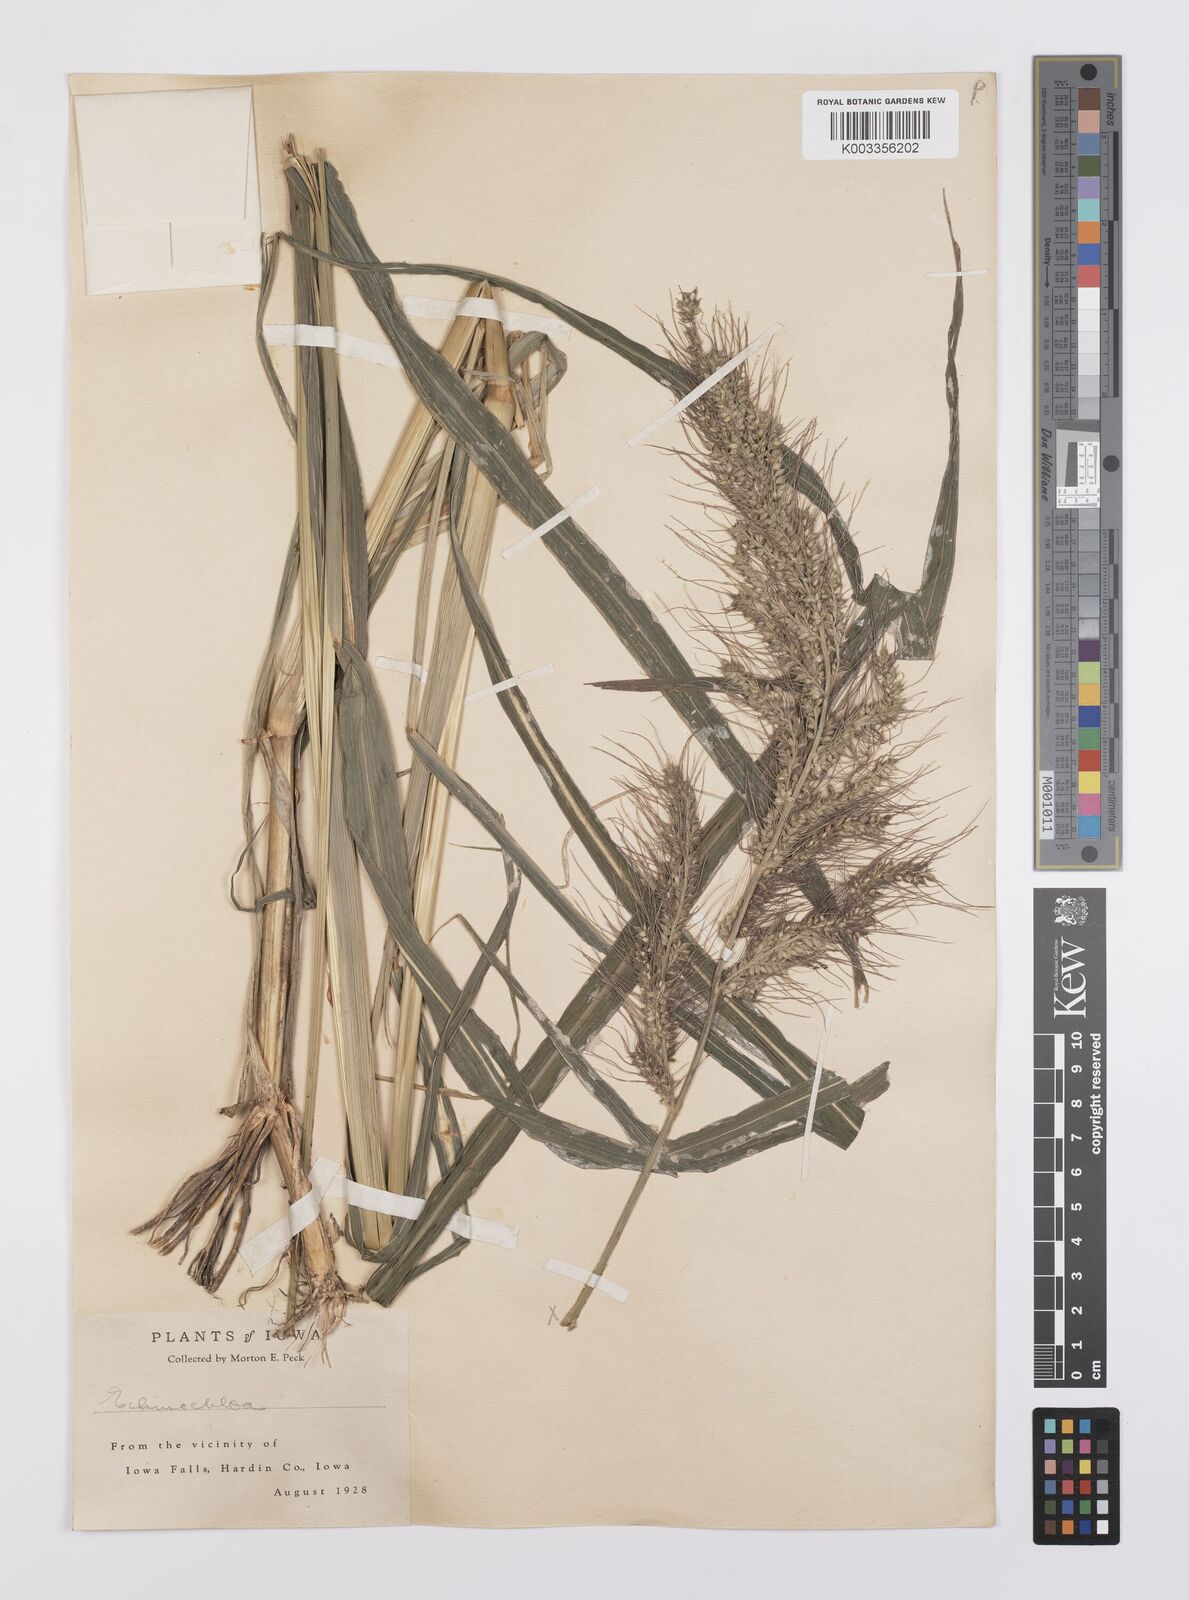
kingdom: Plantae
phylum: Tracheophyta
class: Liliopsida
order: Poales
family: Poaceae
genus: Echinochloa
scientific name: Echinochloa crus-galli
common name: Cockspur
